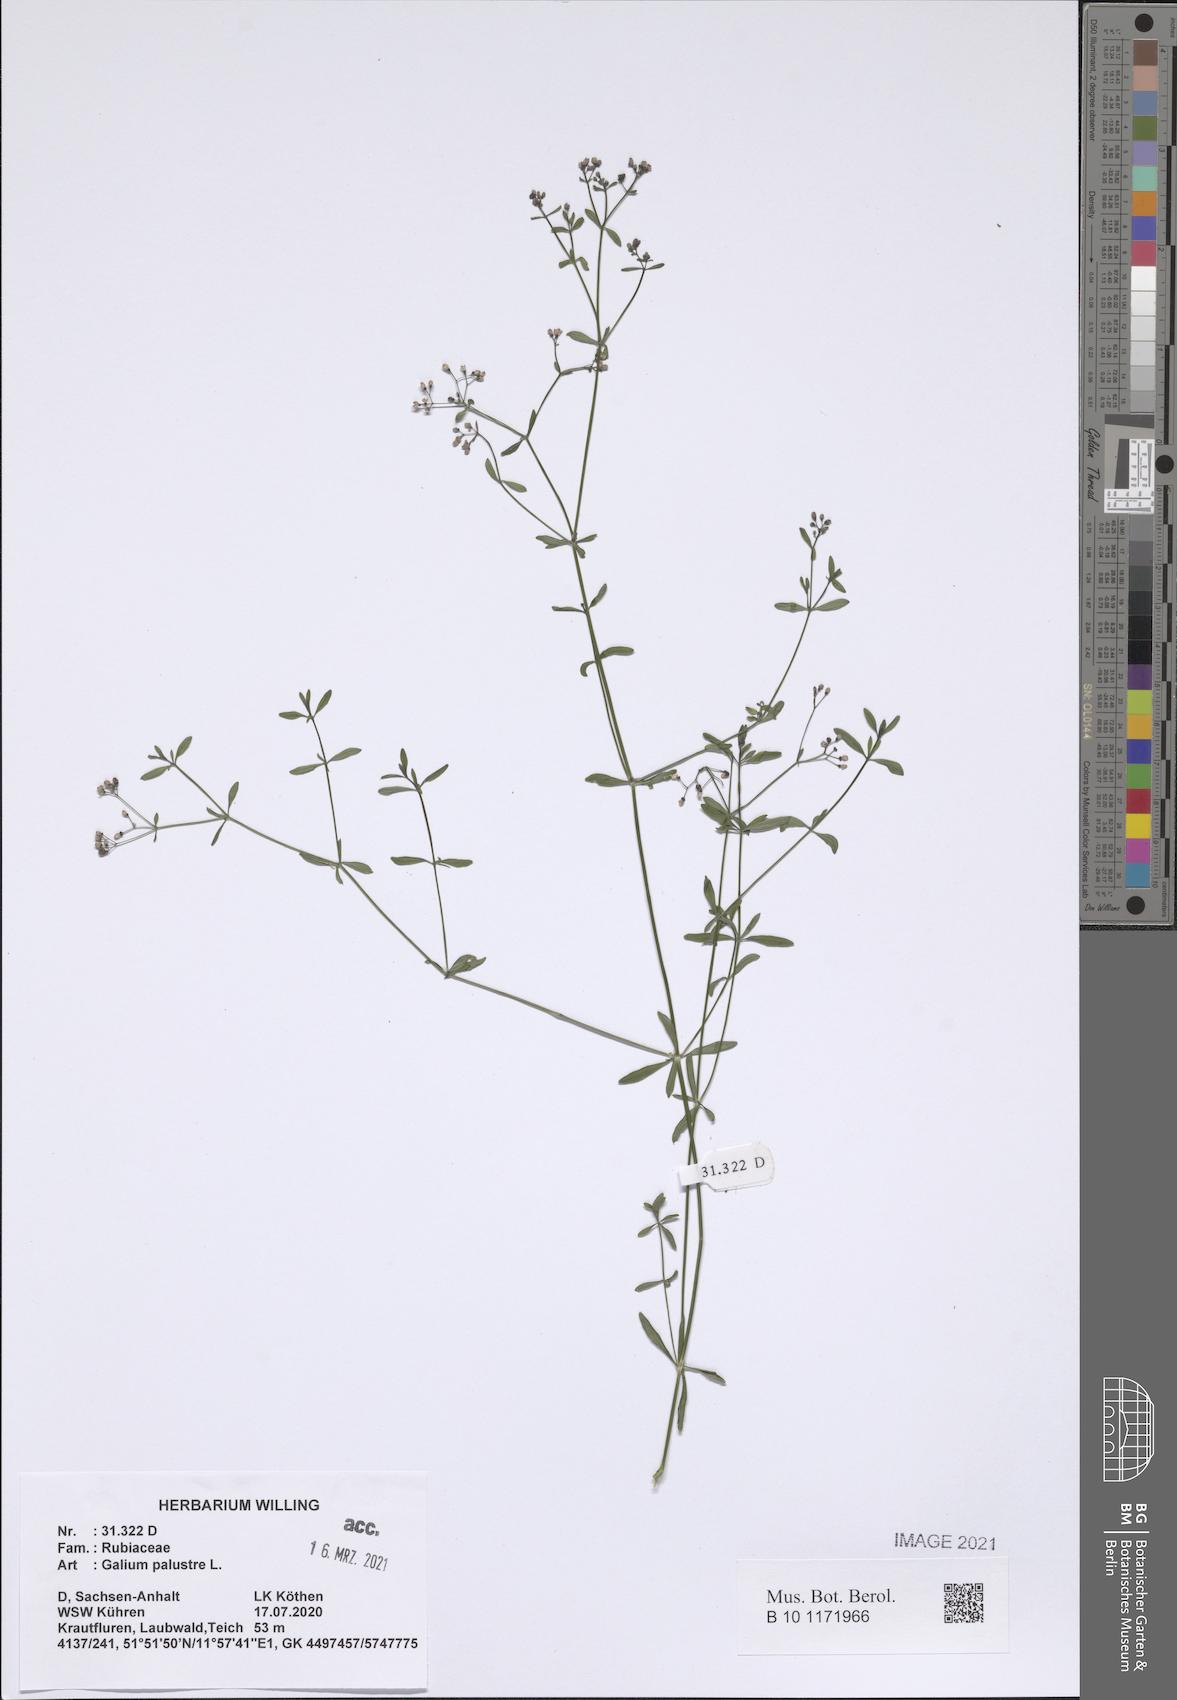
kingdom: Plantae
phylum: Tracheophyta
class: Magnoliopsida
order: Gentianales
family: Rubiaceae
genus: Galium
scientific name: Galium palustre
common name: Common marsh-bedstraw
